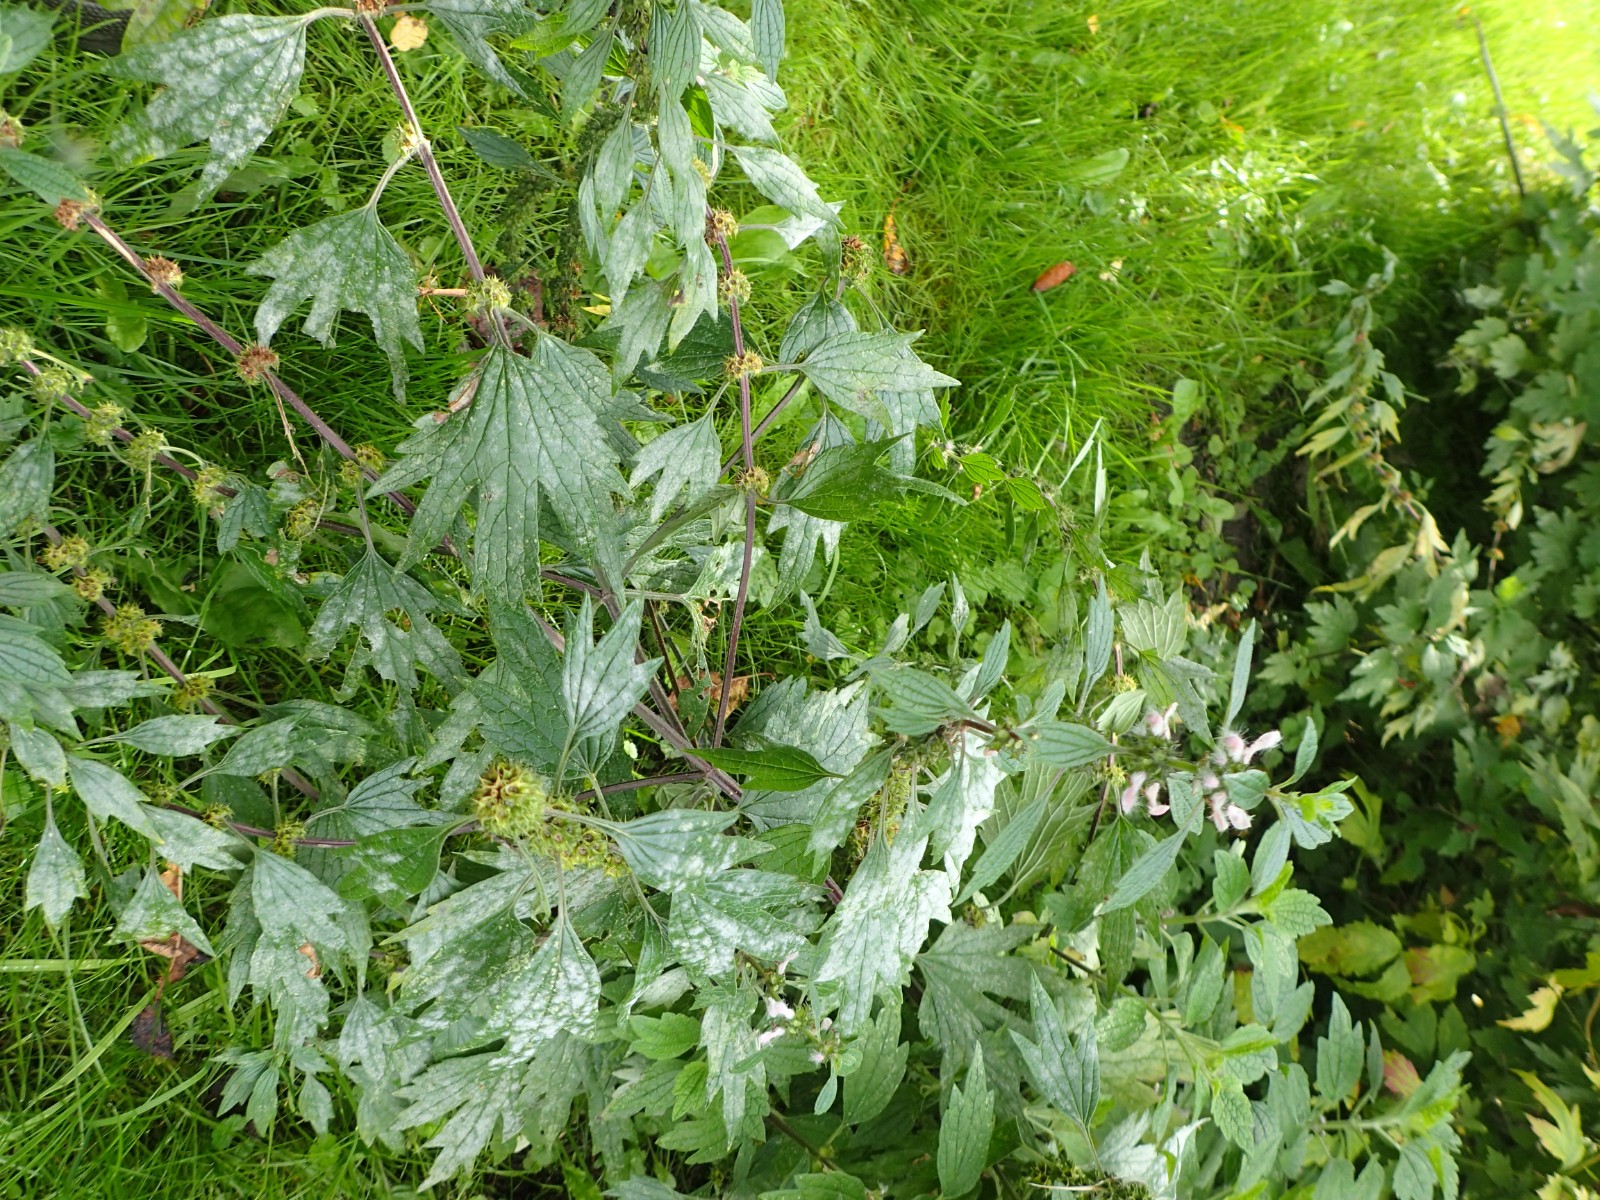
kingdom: Fungi
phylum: Ascomycota
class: Leotiomycetes
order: Helotiales
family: Erysiphaceae
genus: Neoerysiphe
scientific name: Neoerysiphe galeopsidis
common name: Mint mildew
